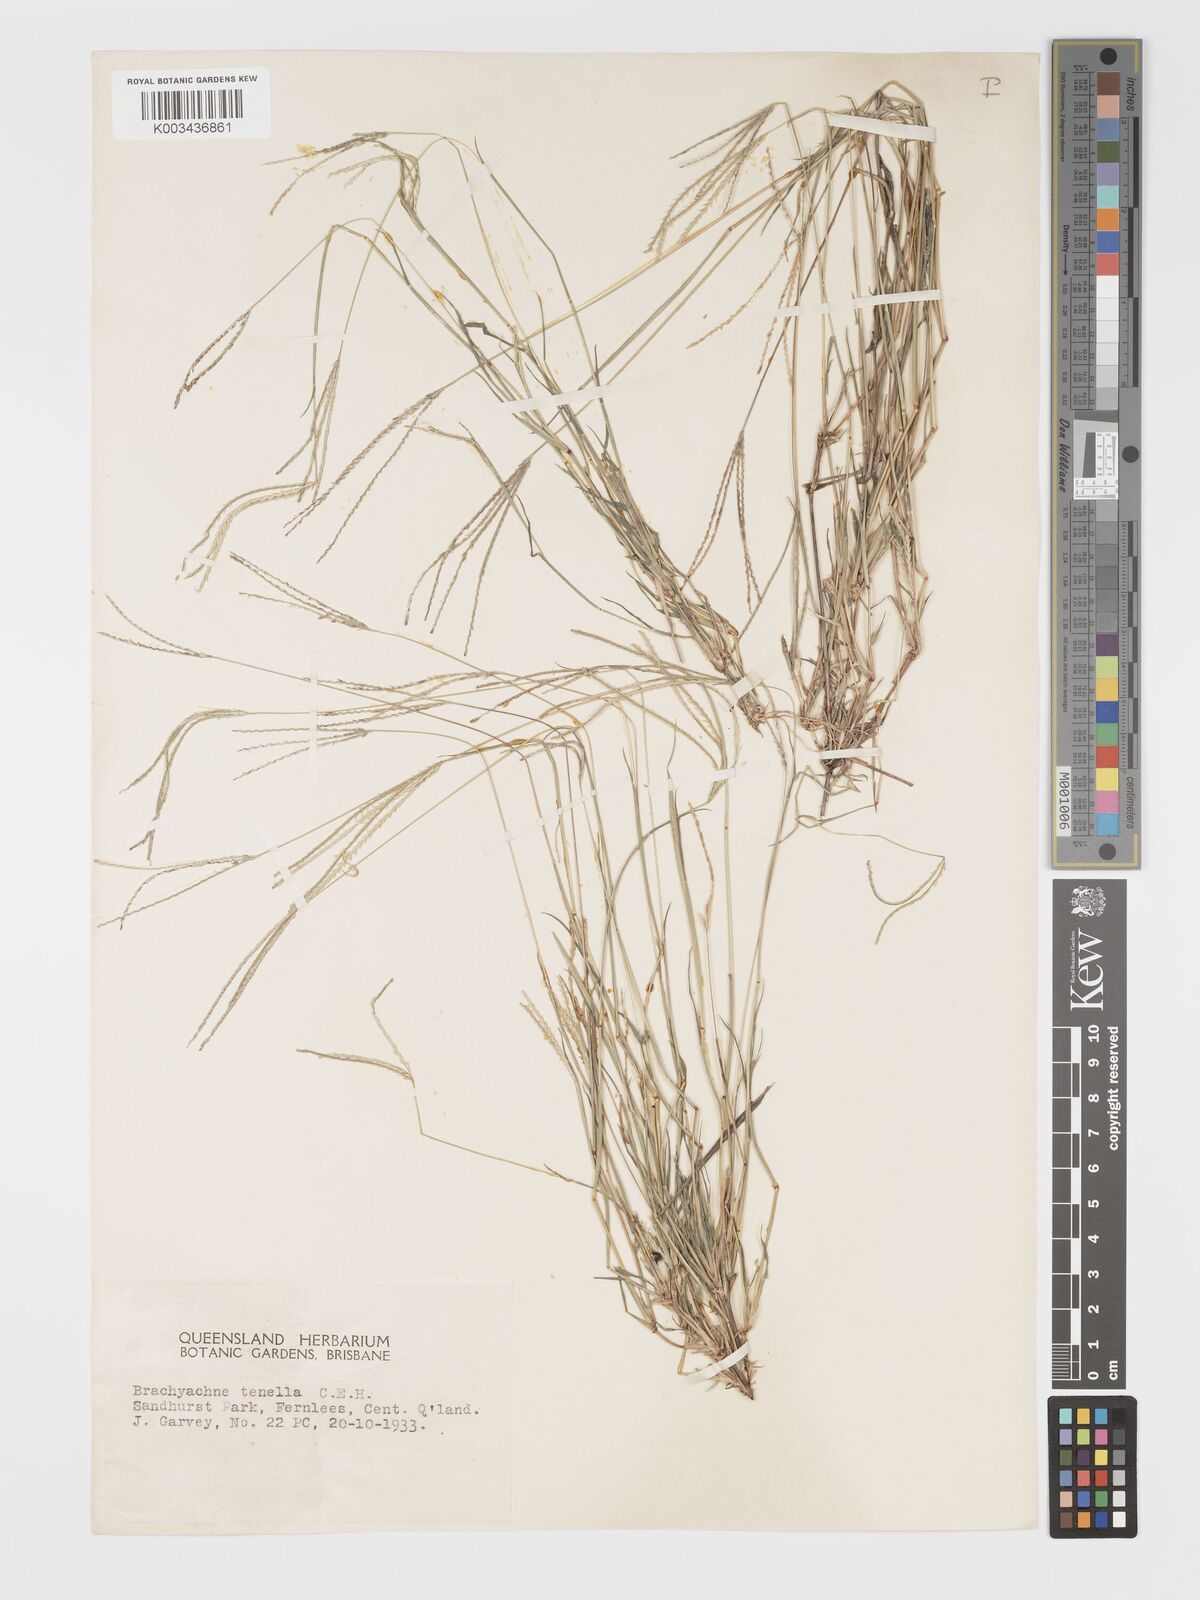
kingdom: Plantae
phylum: Tracheophyta
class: Liliopsida
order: Poales
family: Poaceae
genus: Cynodon
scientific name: Cynodon tenellus
